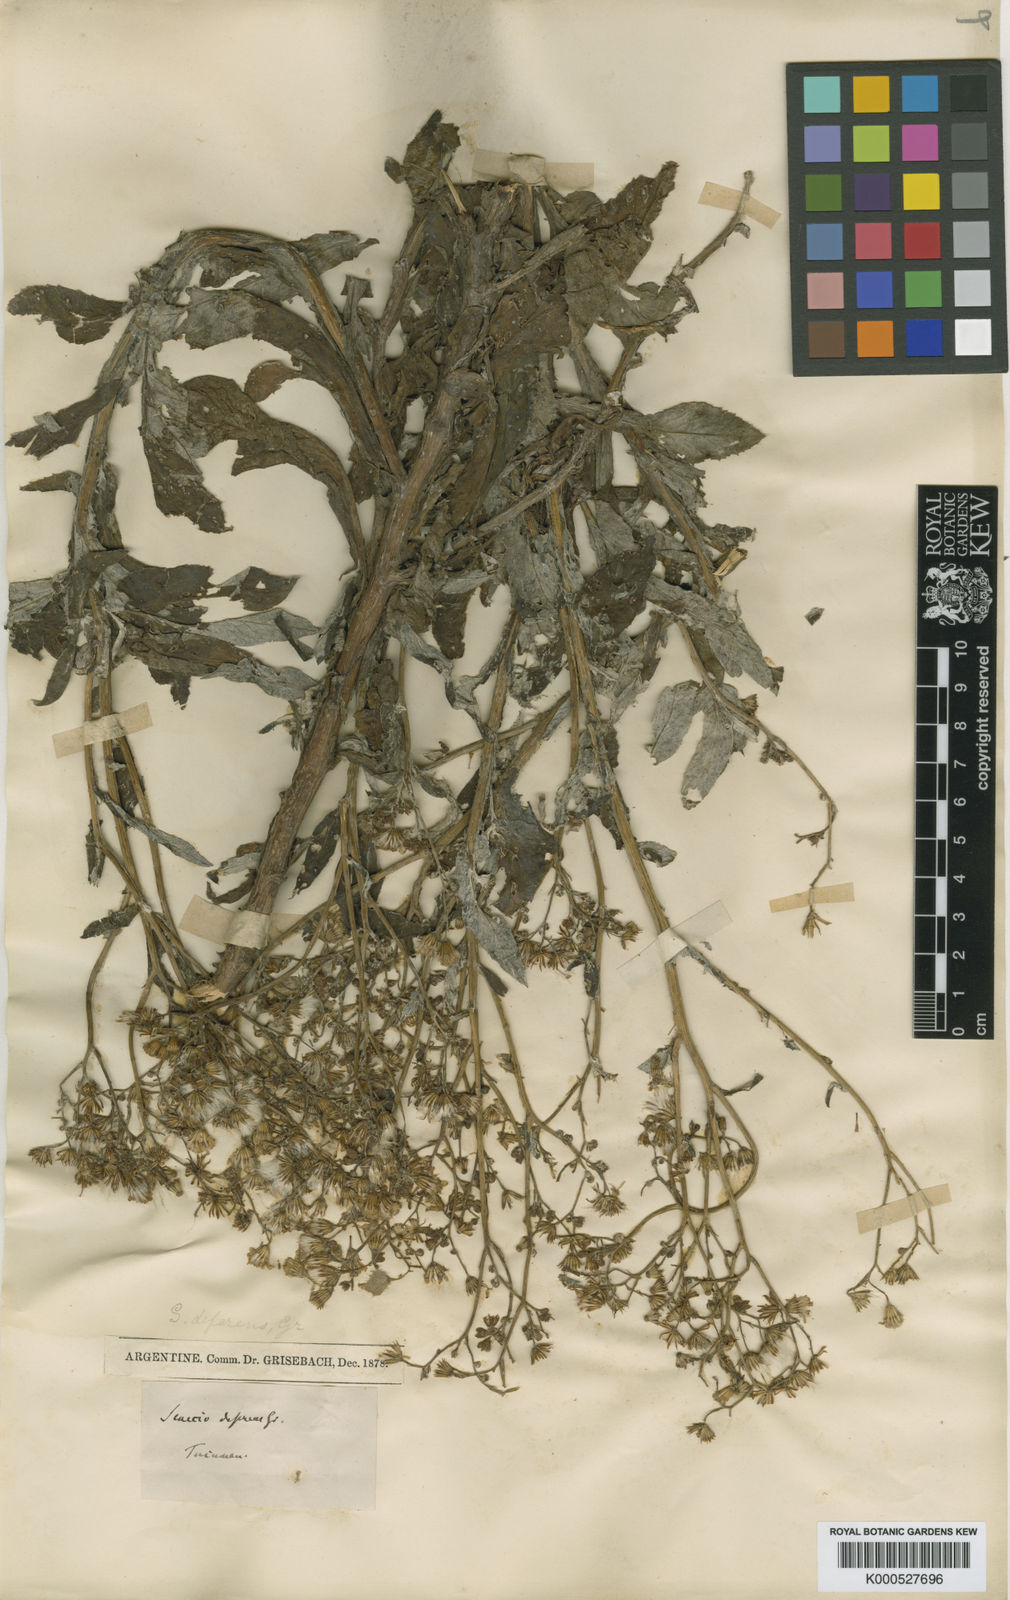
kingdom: Plantae
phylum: Tracheophyta
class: Magnoliopsida
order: Asterales
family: Asteraceae
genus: Senecio
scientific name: Senecio deferens
